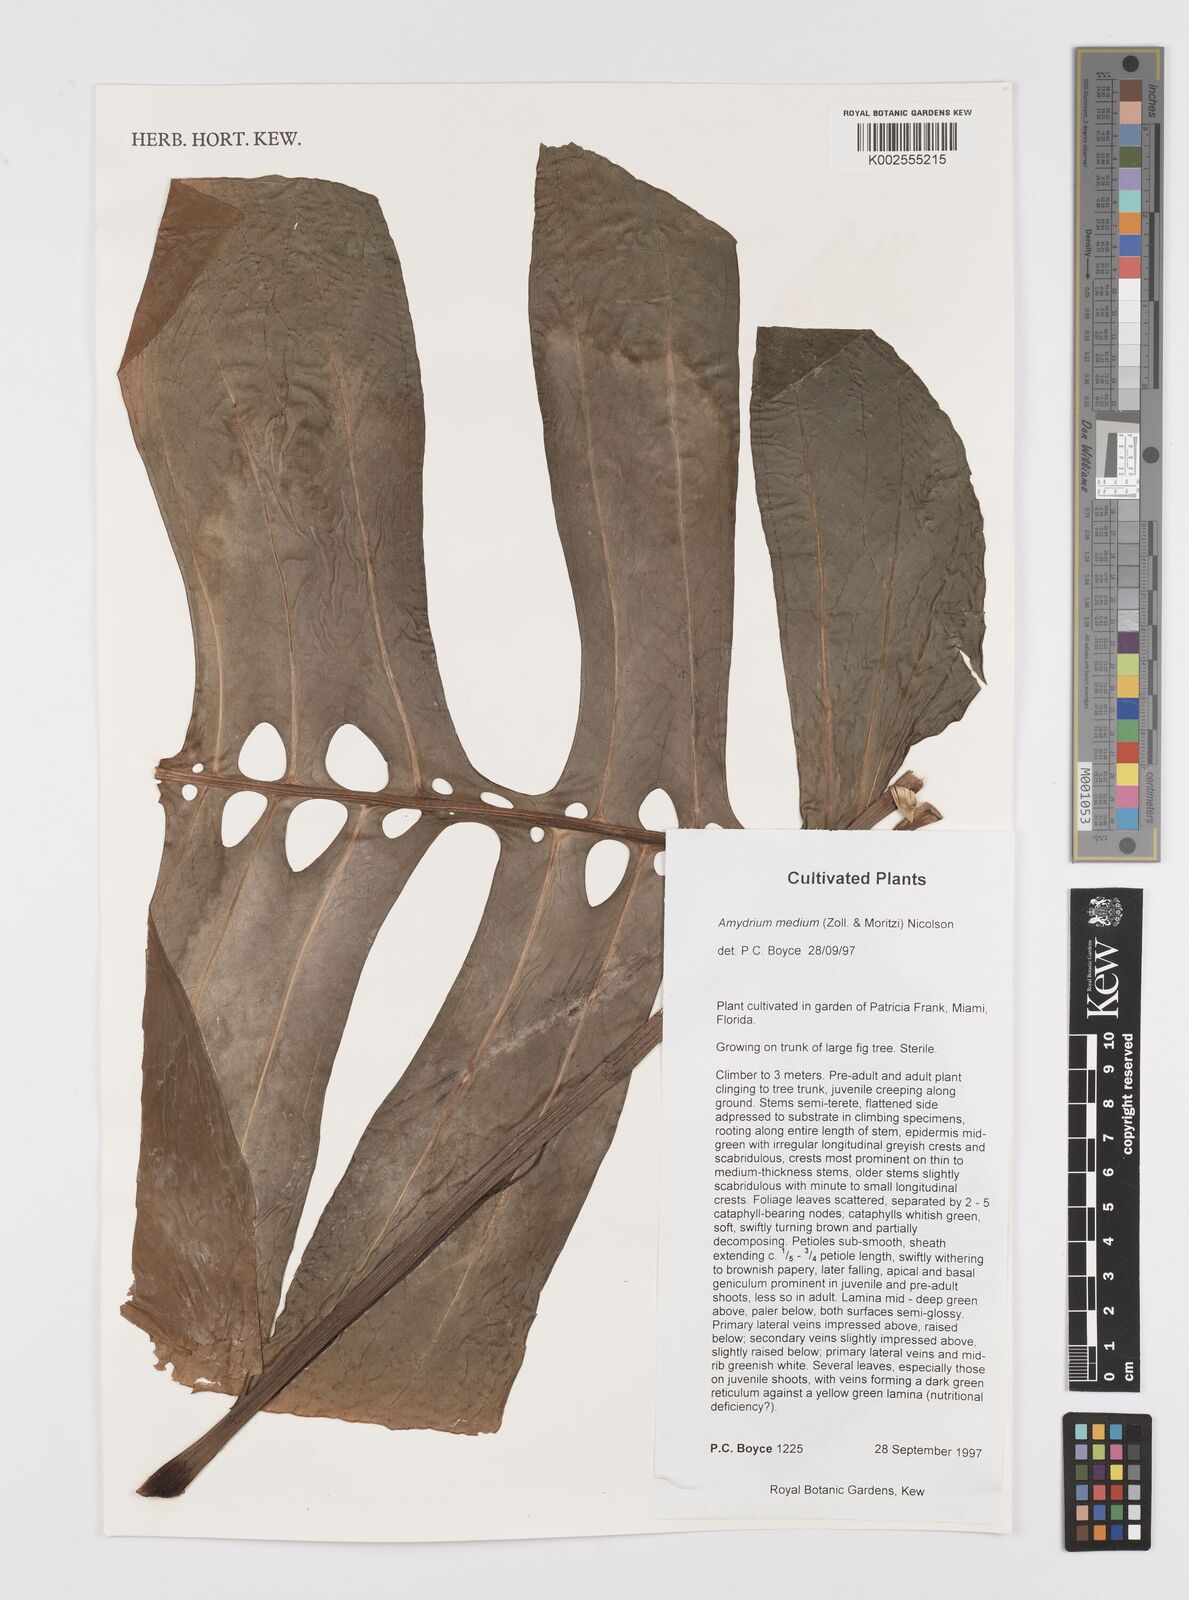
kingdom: Plantae
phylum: Tracheophyta
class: Liliopsida
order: Alismatales
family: Araceae
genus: Amydrium
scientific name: Amydrium medium
